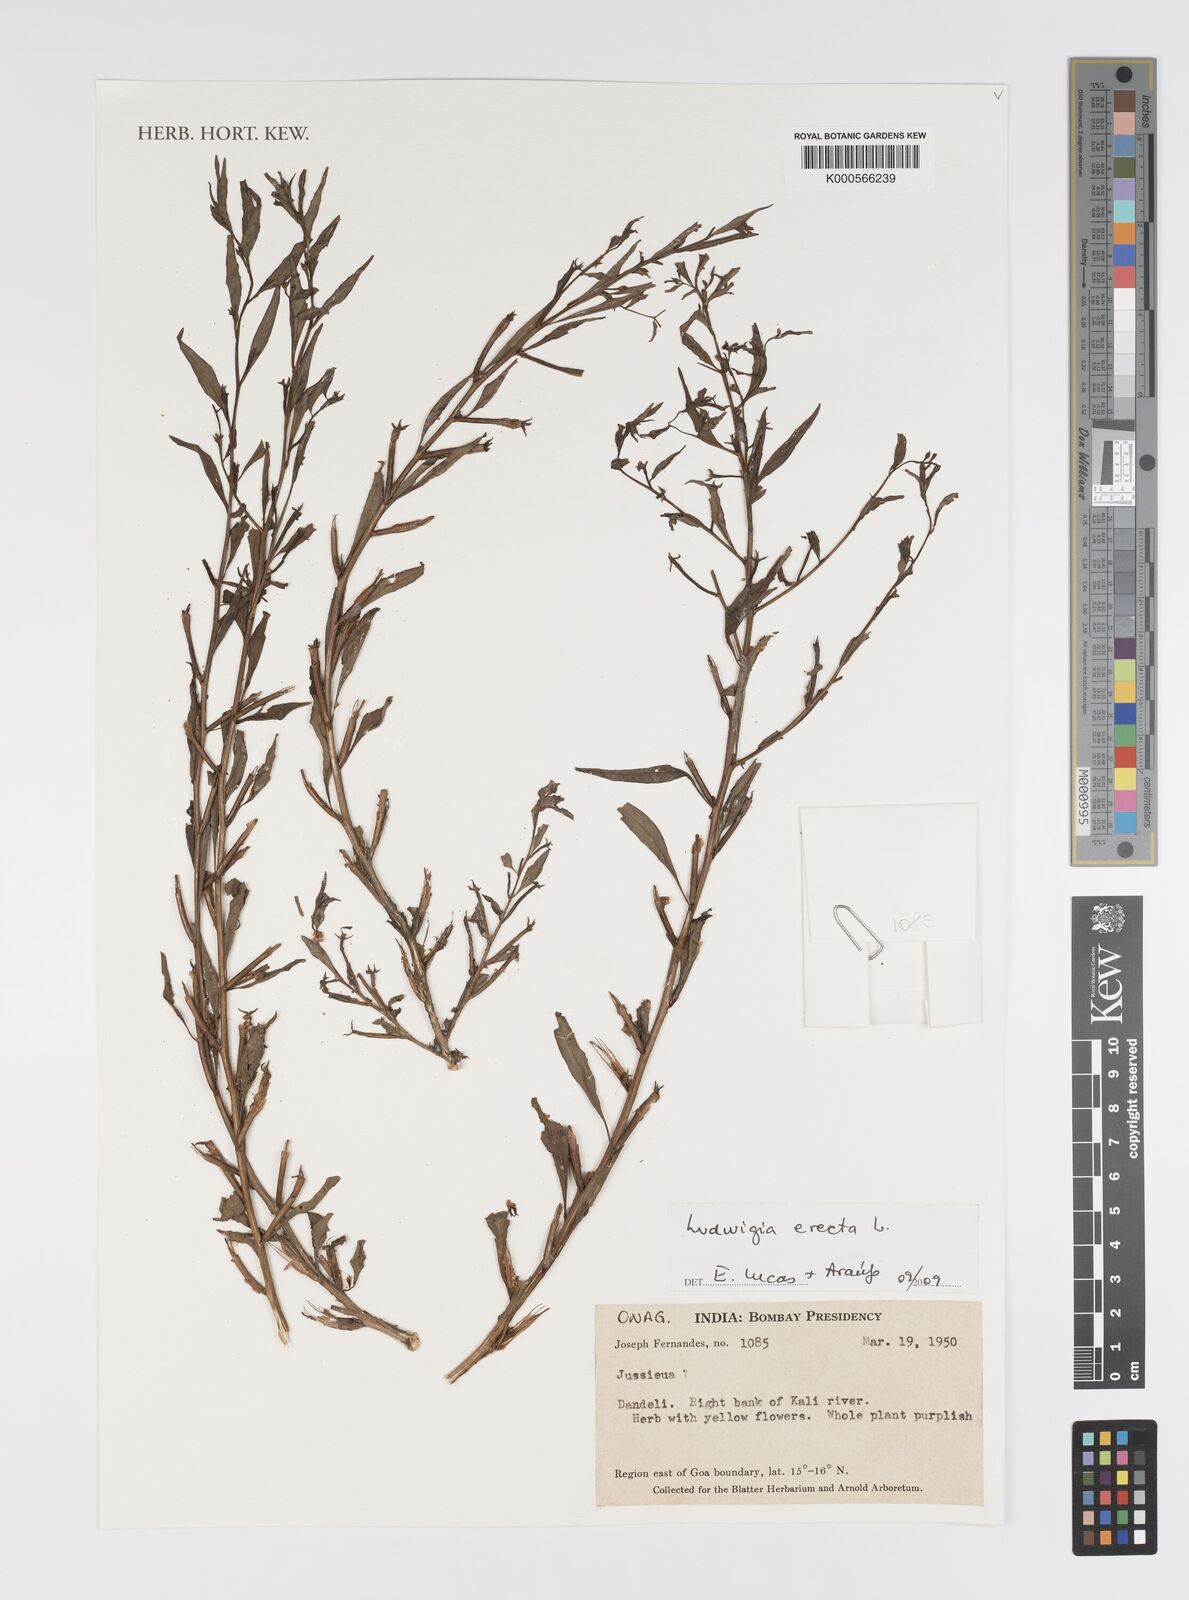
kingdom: Plantae
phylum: Tracheophyta
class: Magnoliopsida
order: Myrtales
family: Onagraceae
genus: Ludwigia
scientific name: Ludwigia erecta
